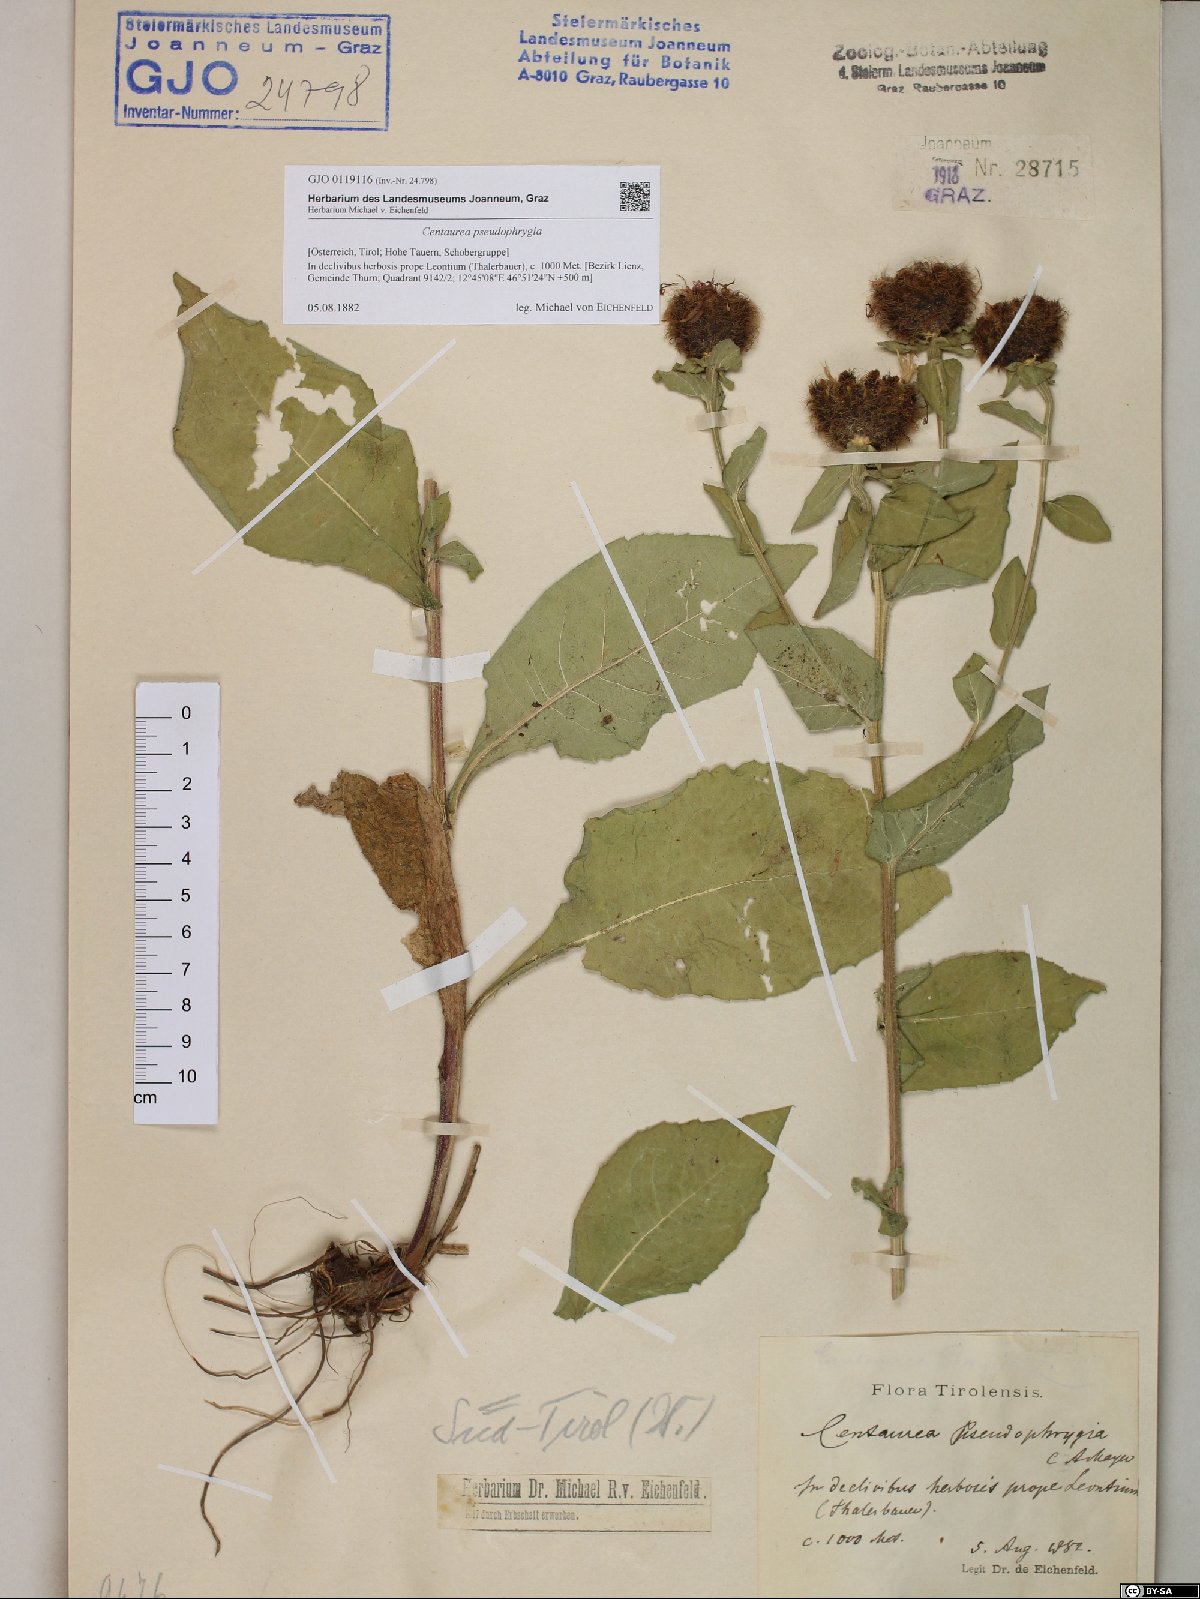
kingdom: Plantae
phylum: Tracheophyta
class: Magnoliopsida
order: Asterales
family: Asteraceae
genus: Centaurea
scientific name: Centaurea pseudophrygia
